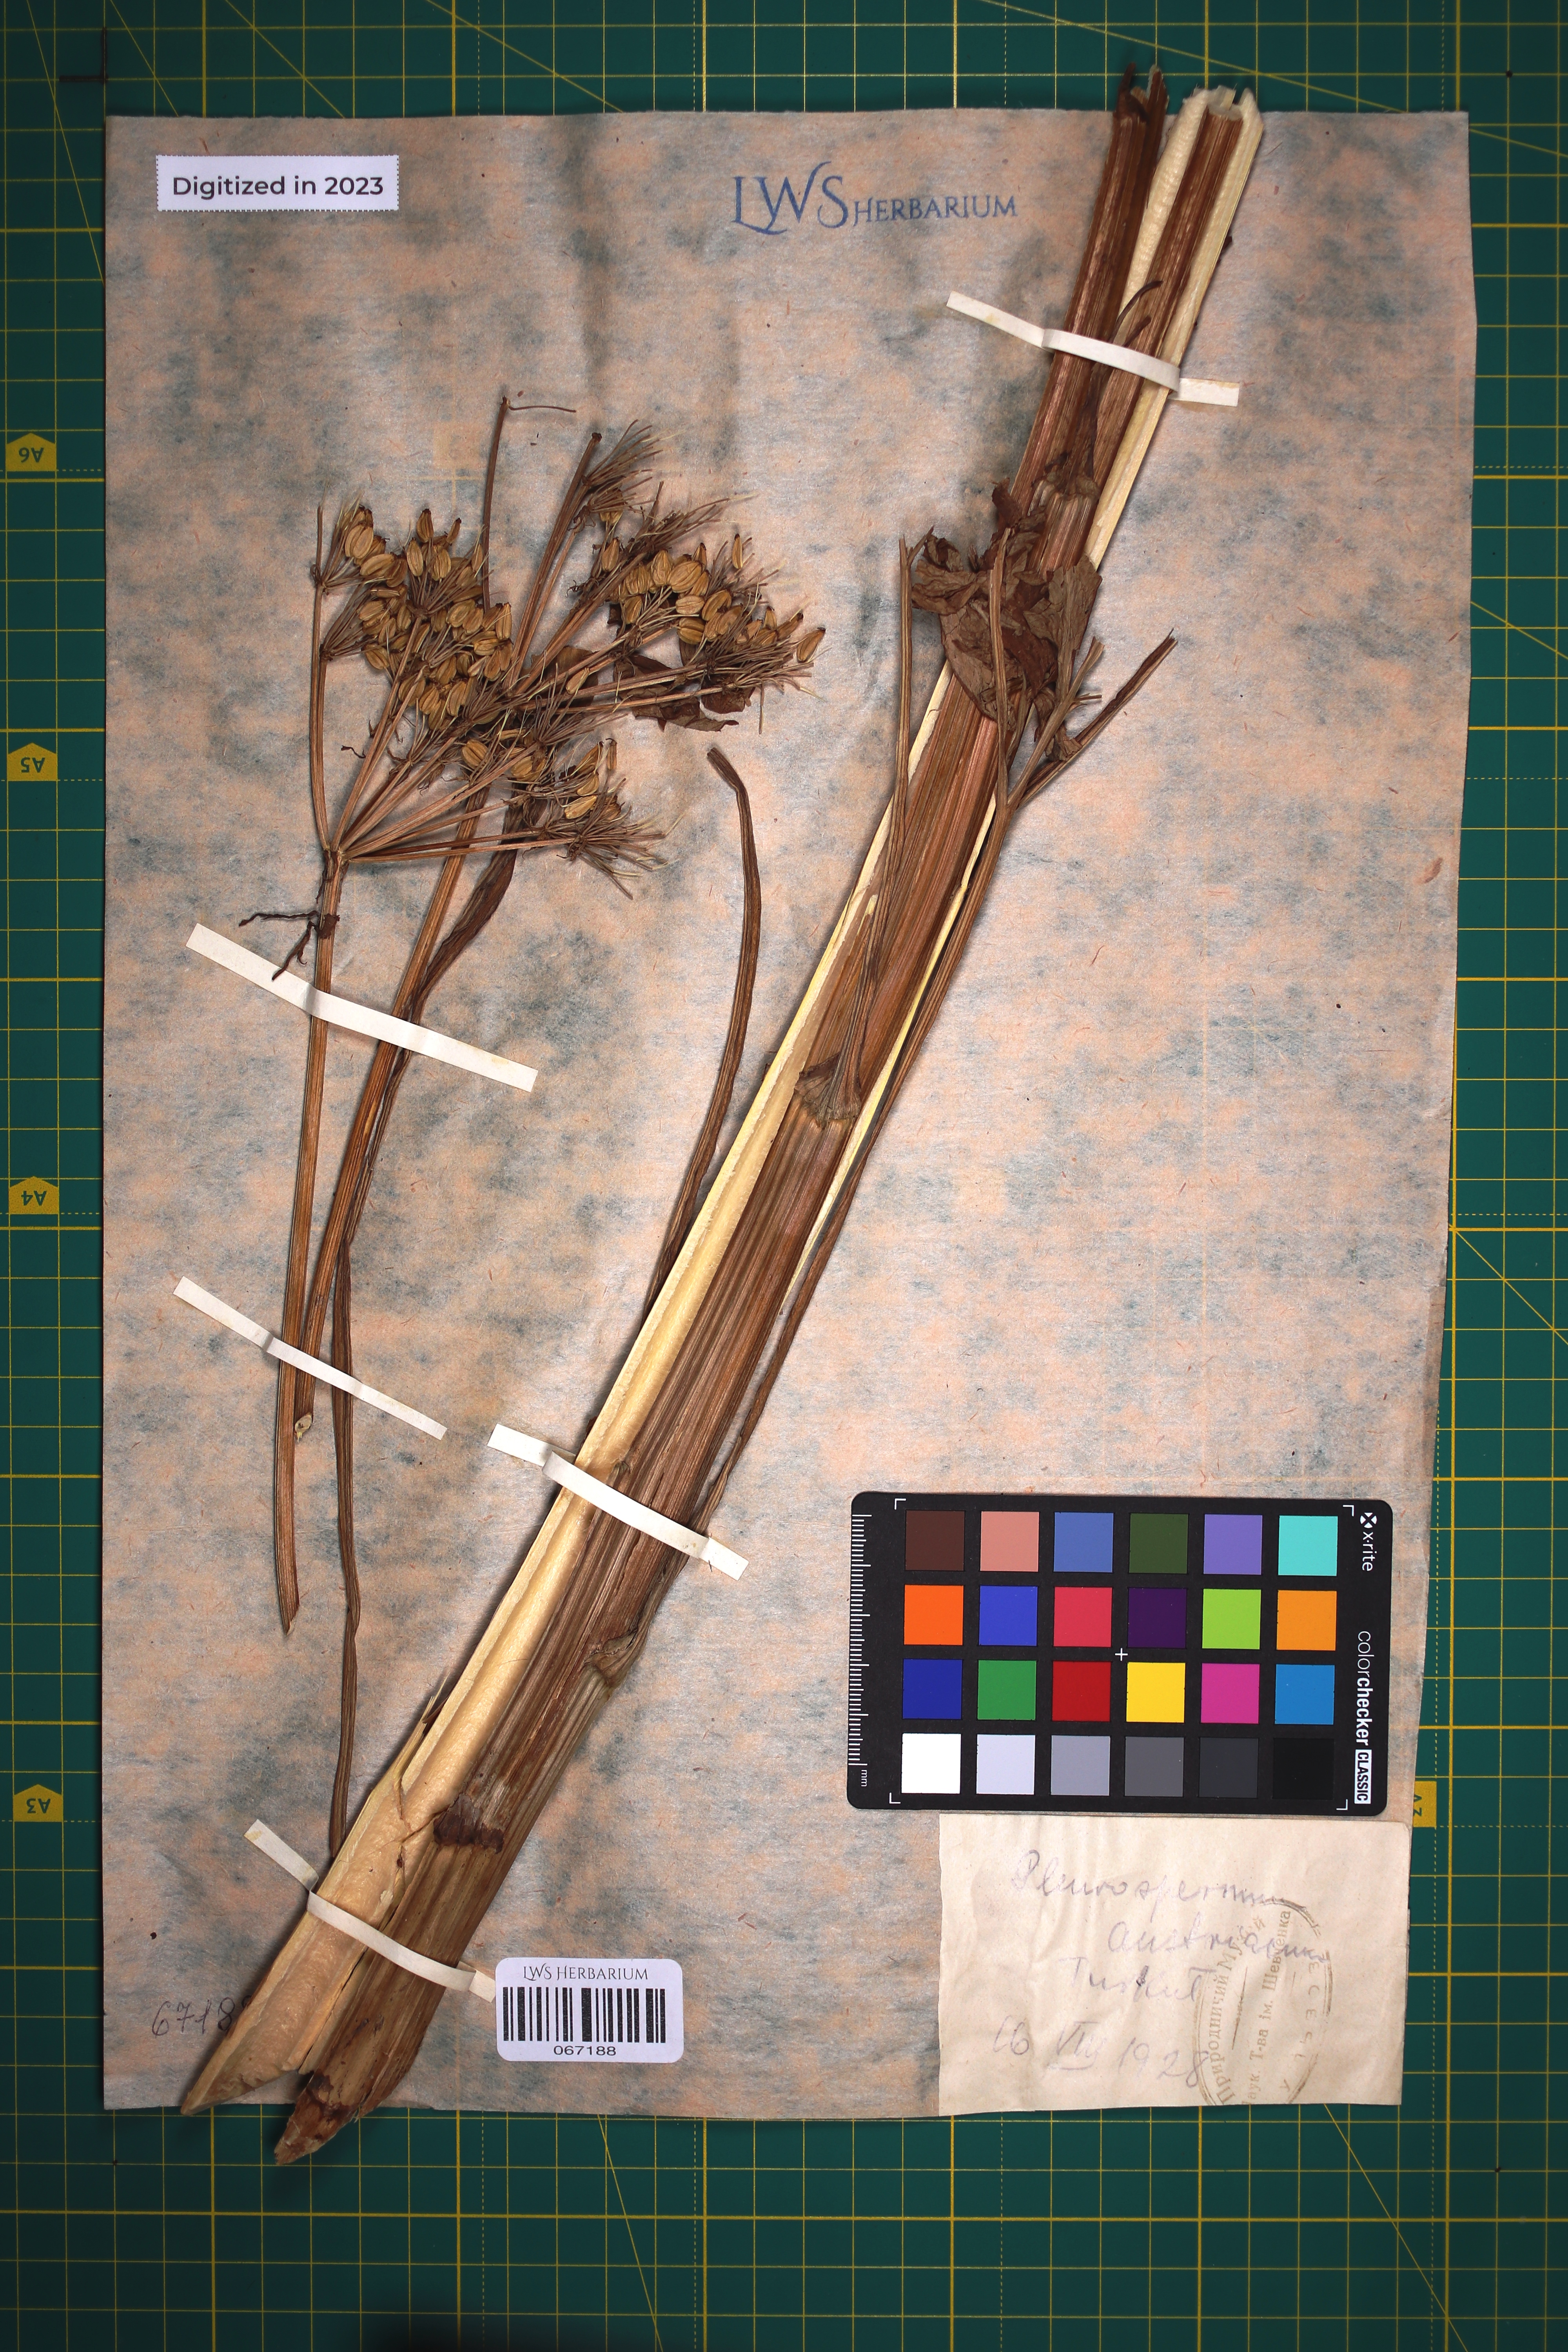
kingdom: Plantae
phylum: Tracheophyta
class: Magnoliopsida
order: Apiales
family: Apiaceae
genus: Pleurospermum
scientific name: Pleurospermum austriacum
